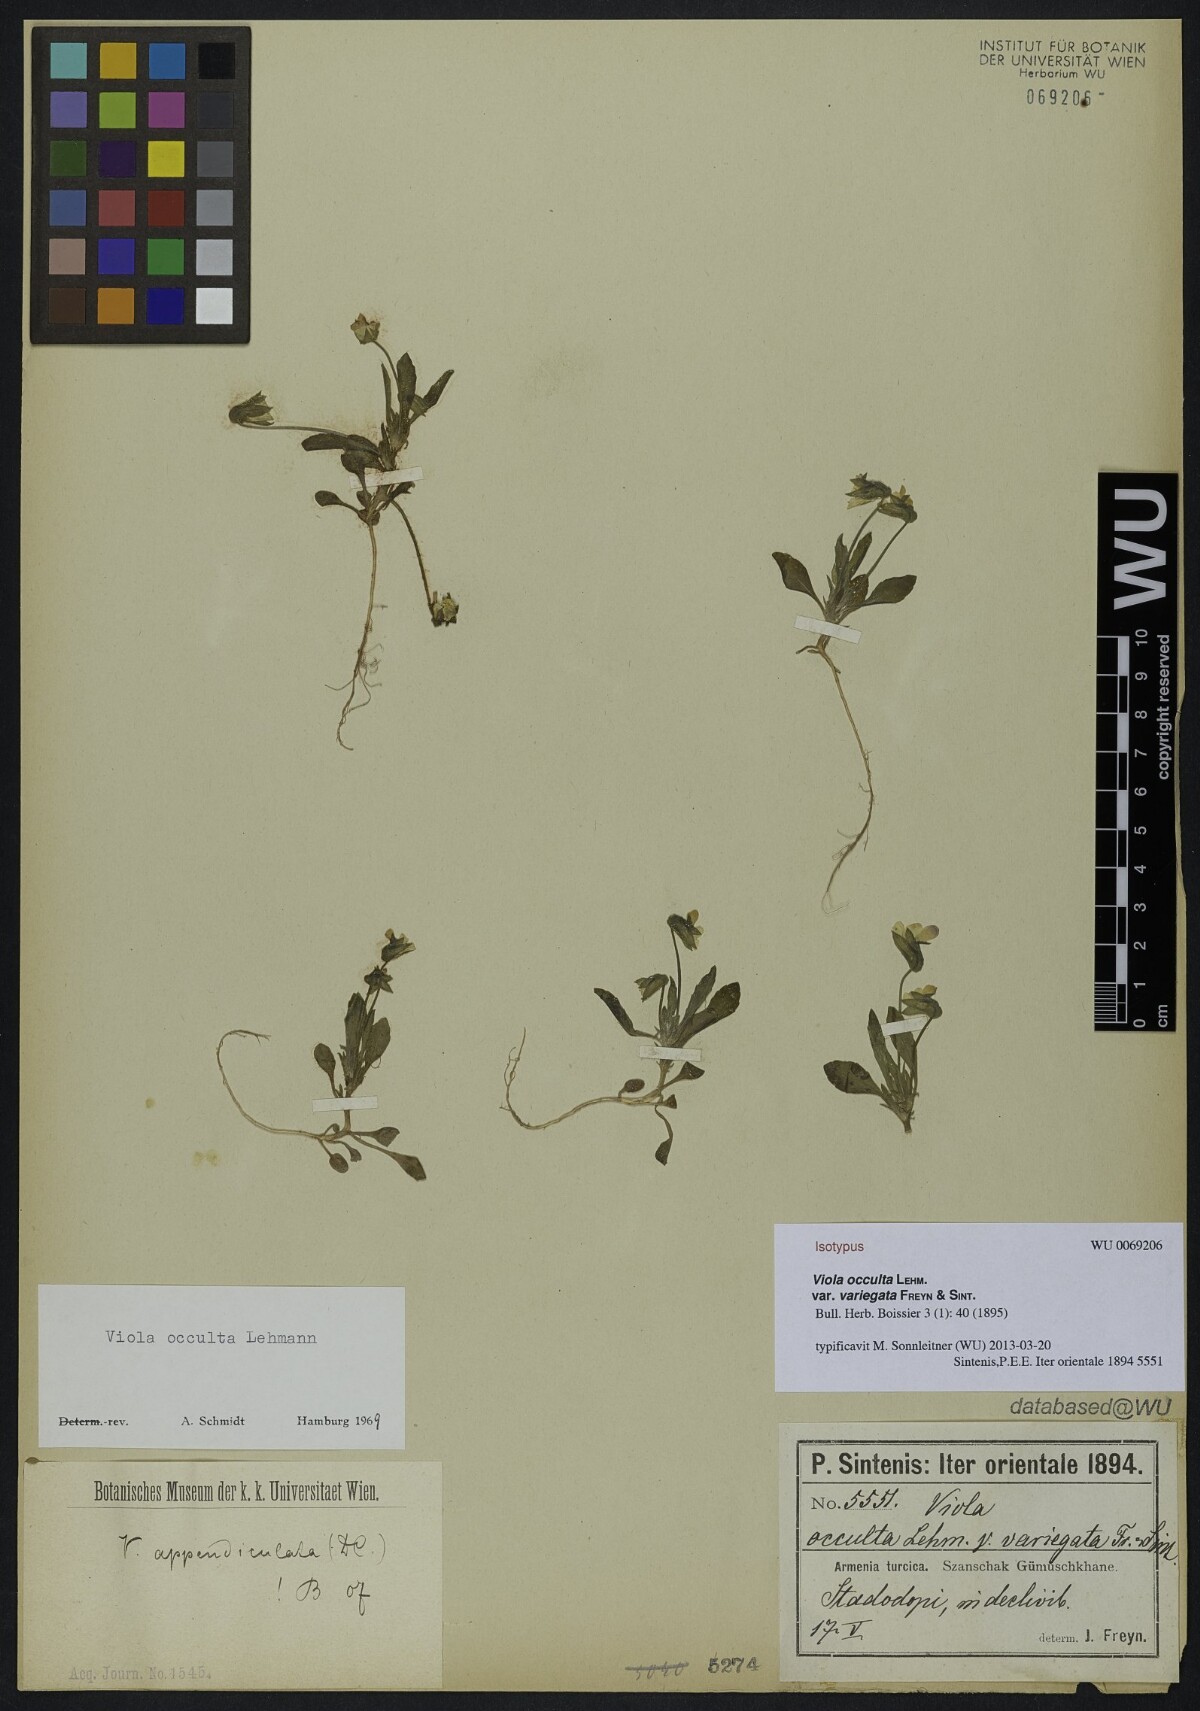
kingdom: Plantae
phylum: Tracheophyta
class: Magnoliopsida
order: Malpighiales
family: Violaceae
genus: Viola
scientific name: Viola occulta
